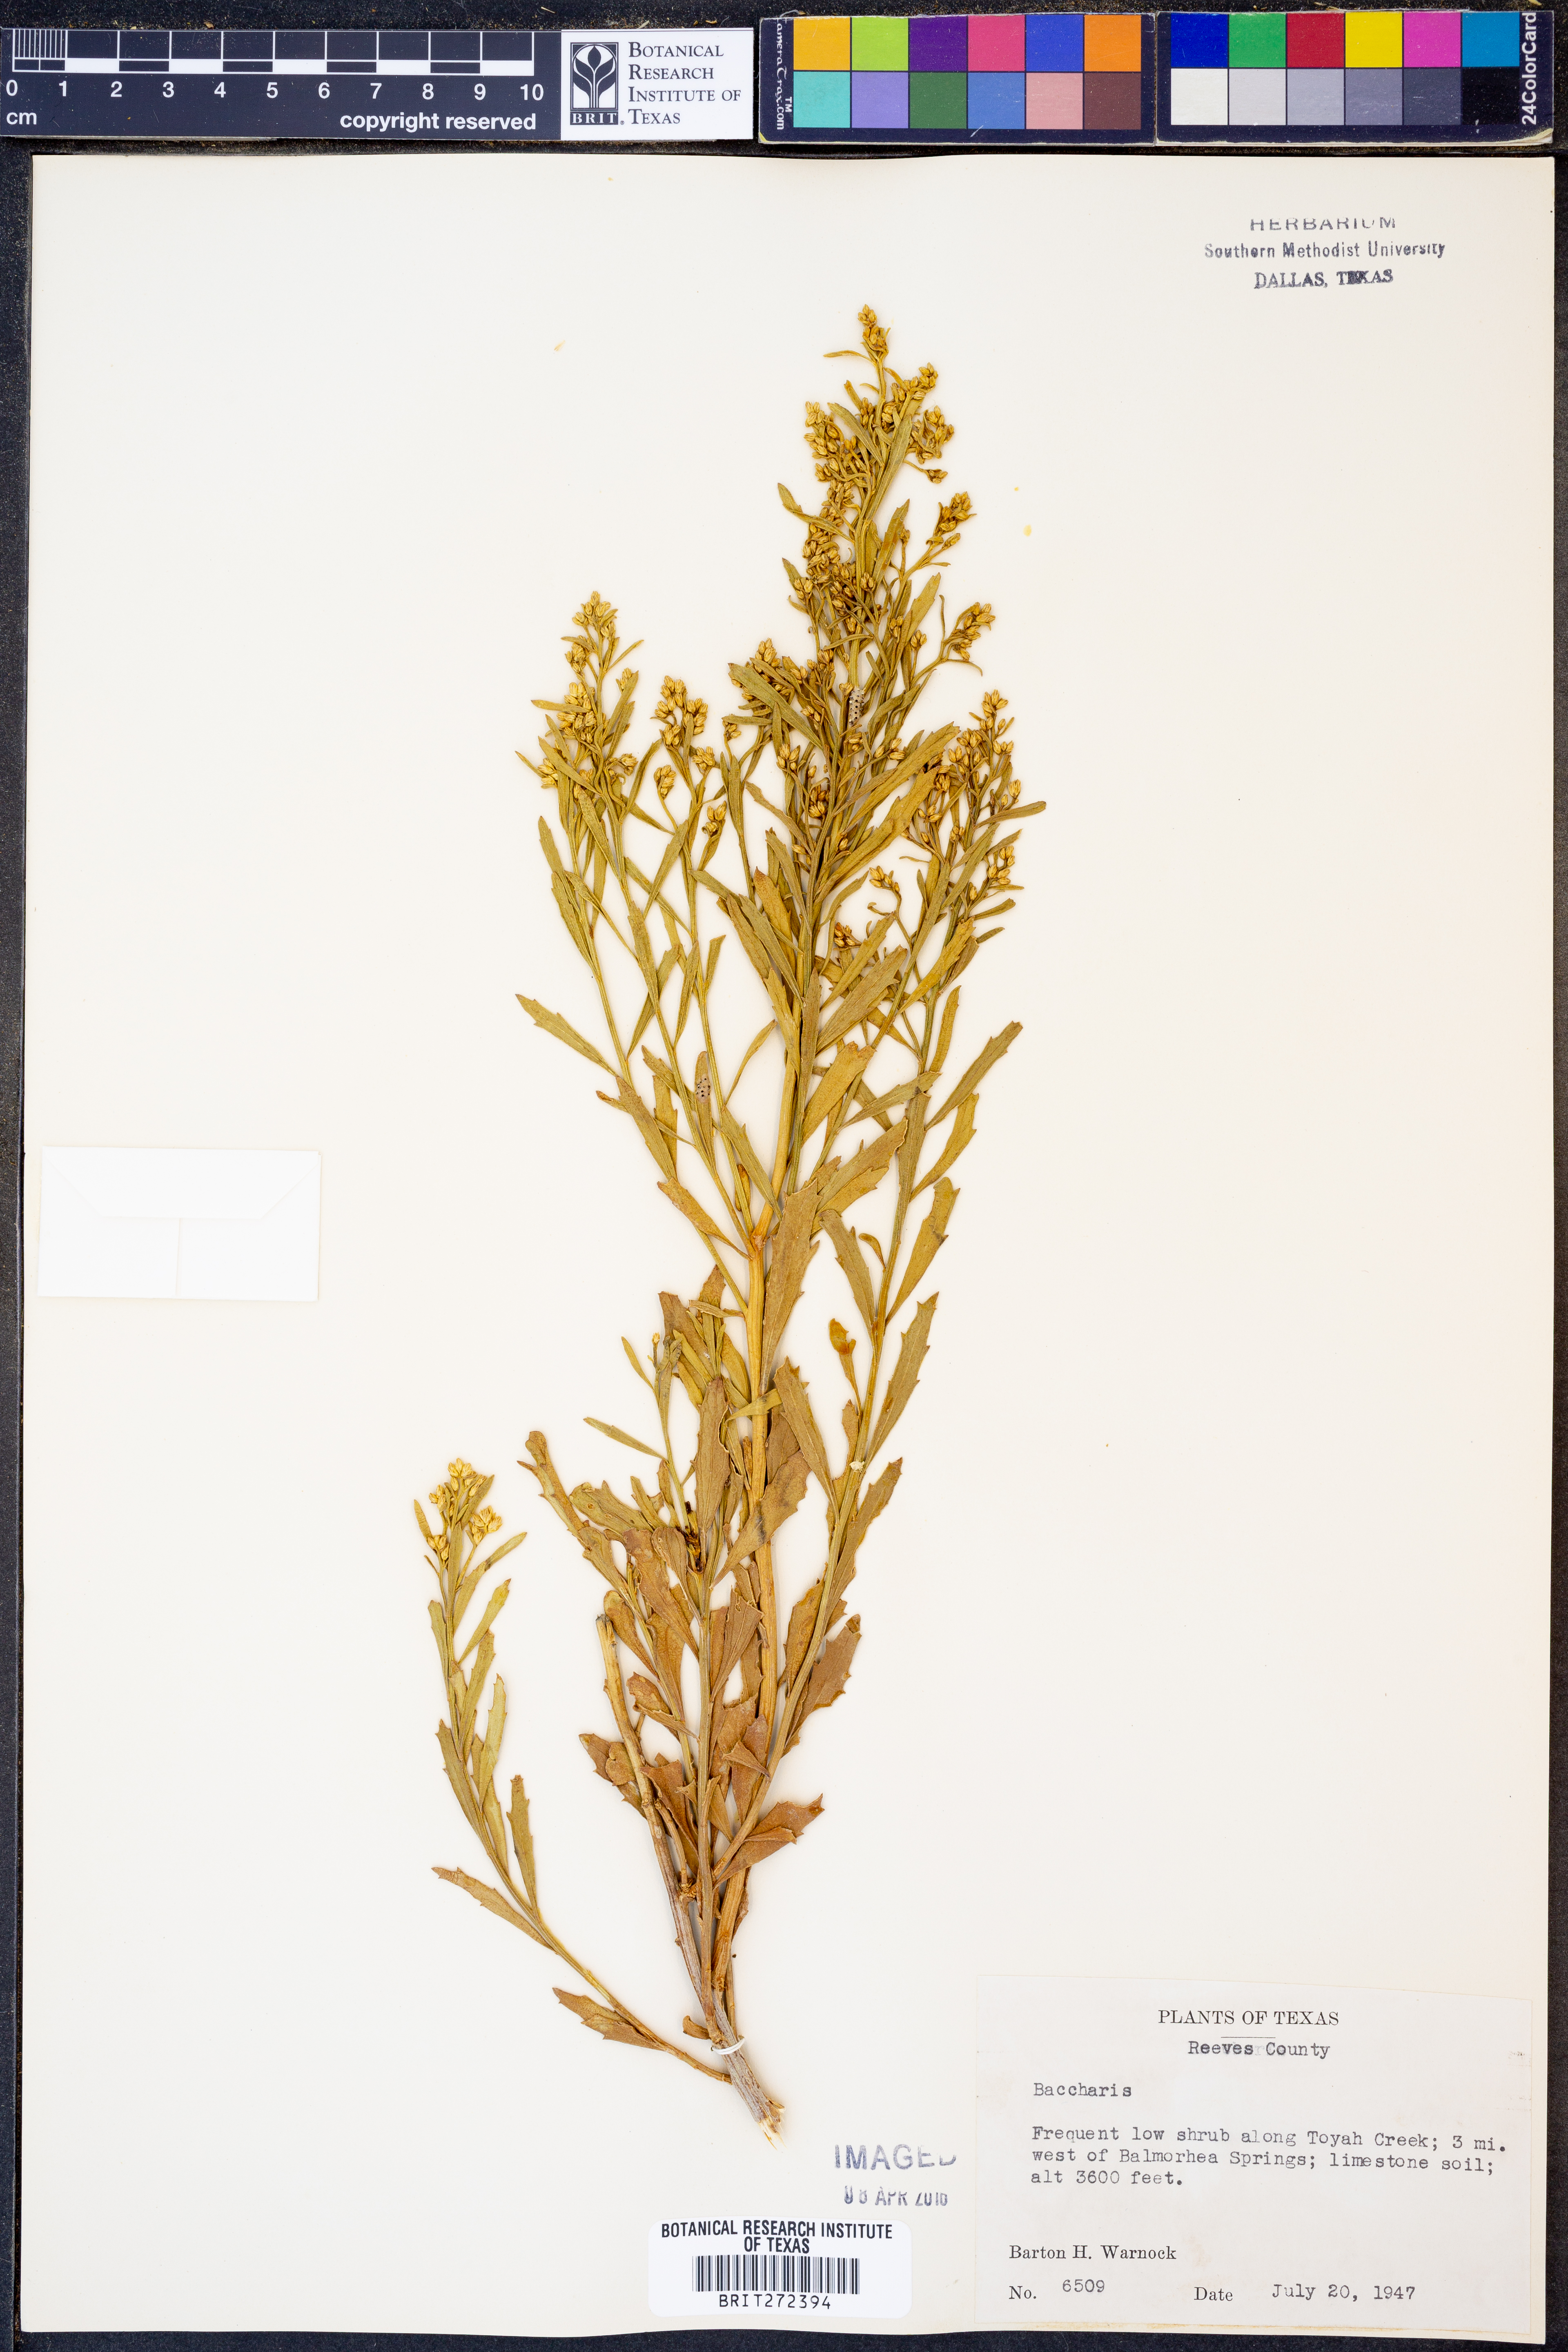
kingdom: Plantae
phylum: Tracheophyta
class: Magnoliopsida
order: Asterales
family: Asteraceae
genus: Baccharis
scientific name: Baccharis
